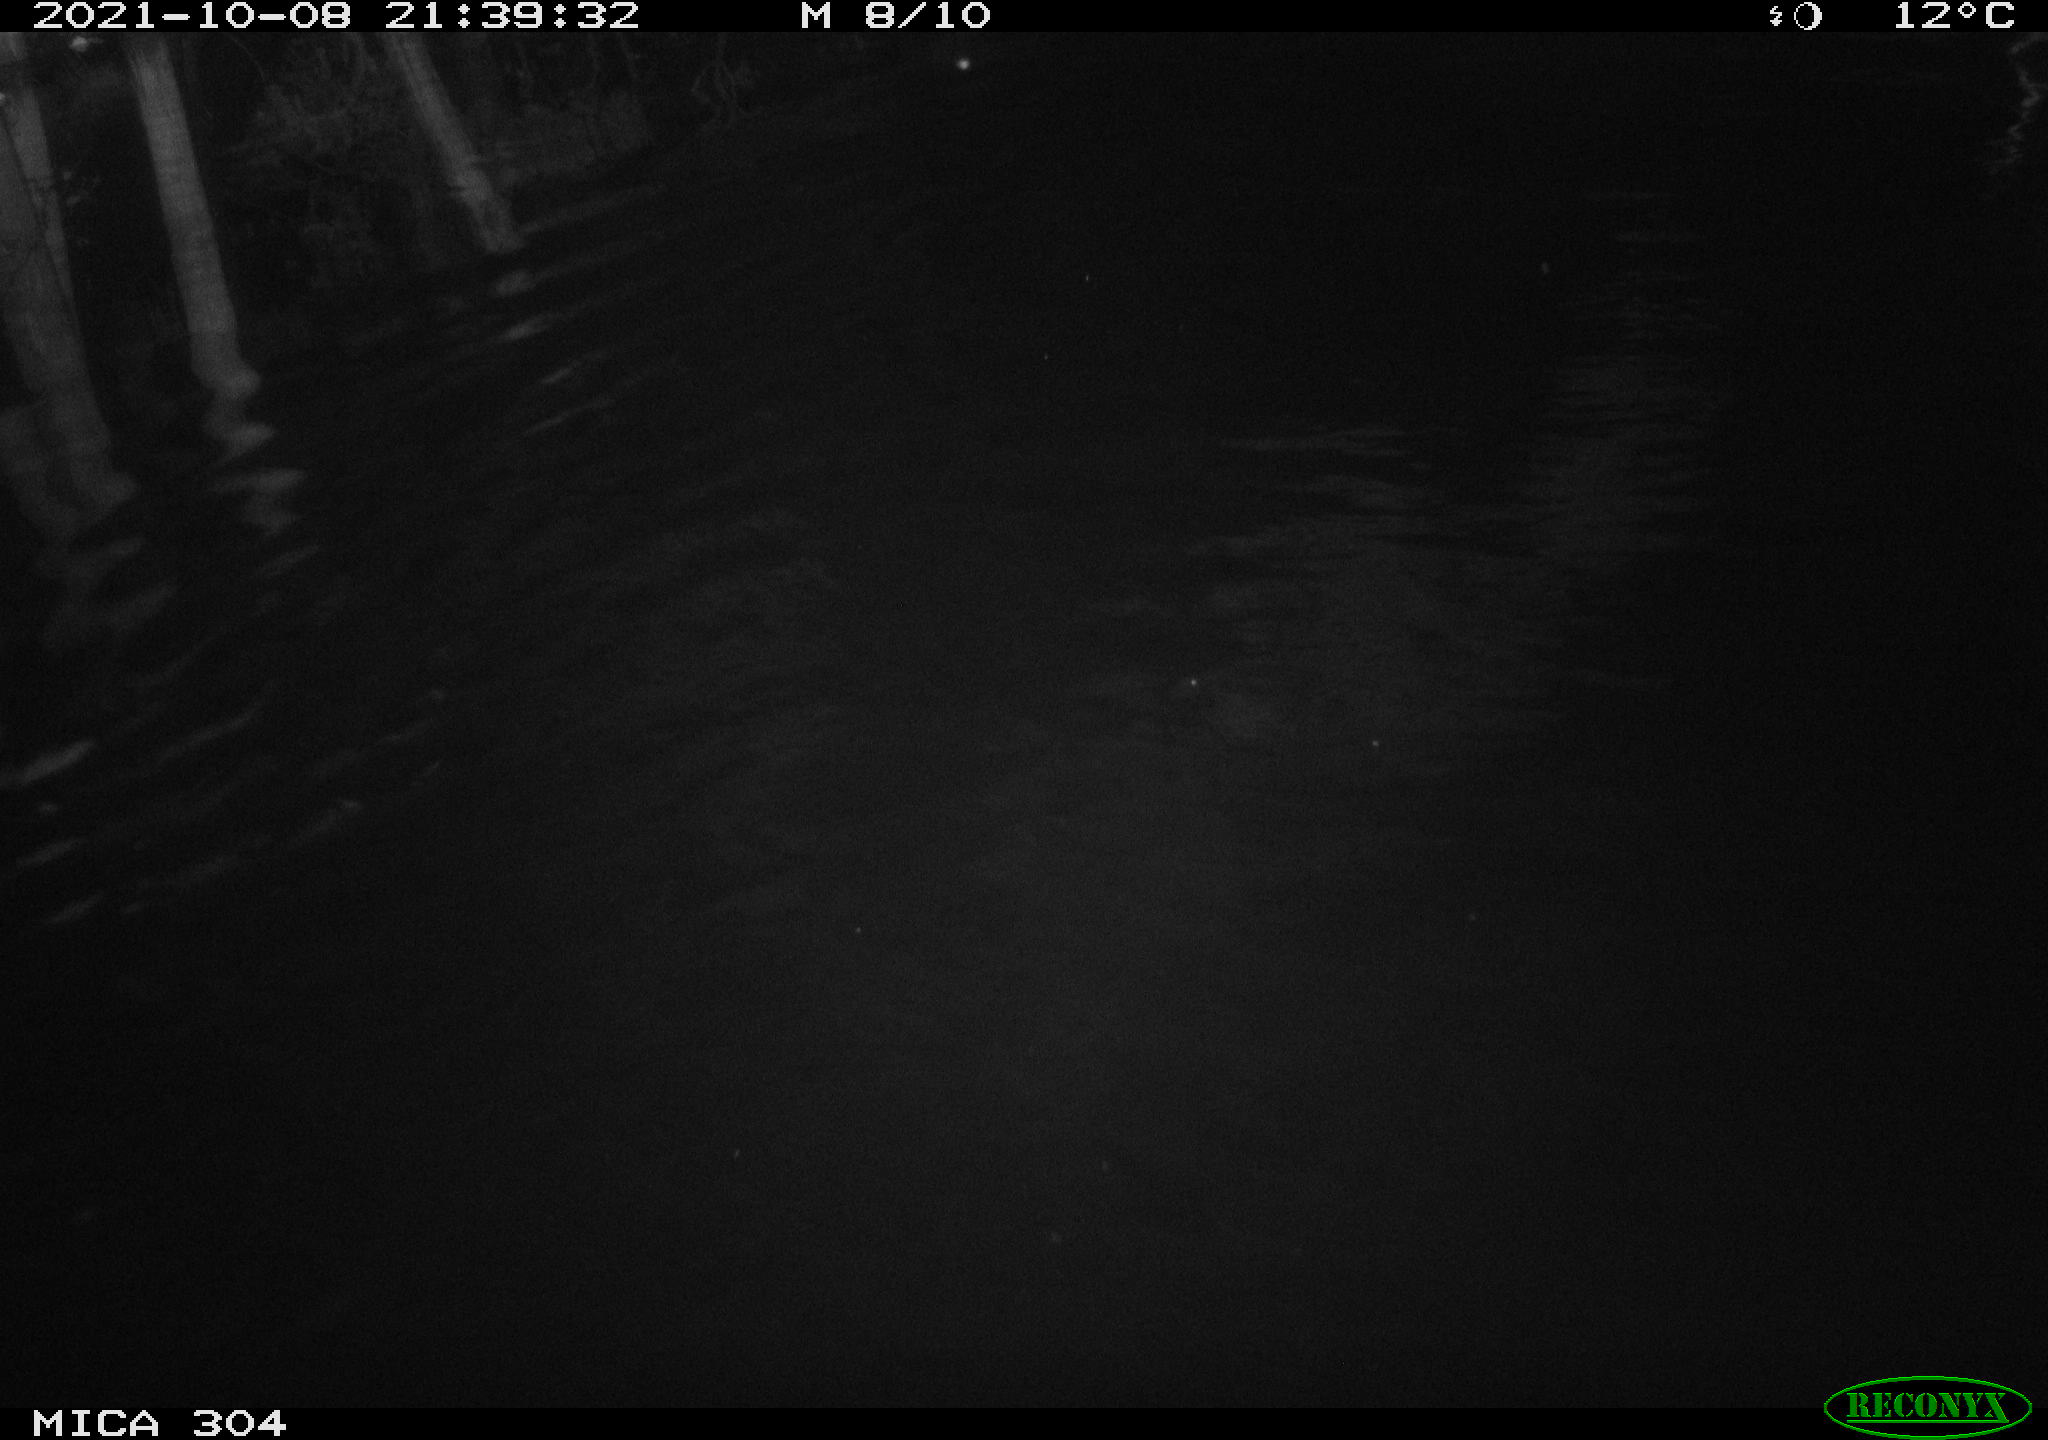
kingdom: Animalia
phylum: Chordata
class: Mammalia
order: Rodentia
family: Cricetidae
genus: Ondatra
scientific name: Ondatra zibethicus
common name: Muskrat
